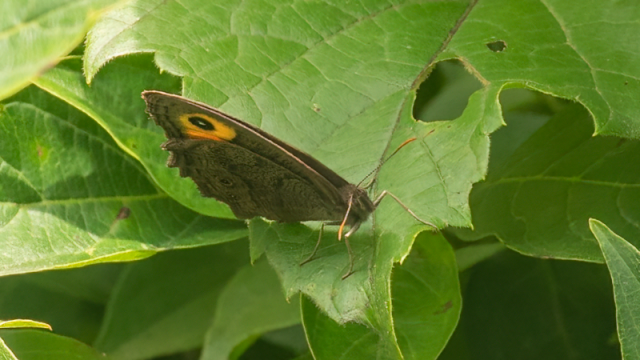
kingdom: Animalia
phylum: Arthropoda
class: Insecta
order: Lepidoptera
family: Nymphalidae
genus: Cercyonis
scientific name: Cercyonis pegala
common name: Common Wood-Nymph
